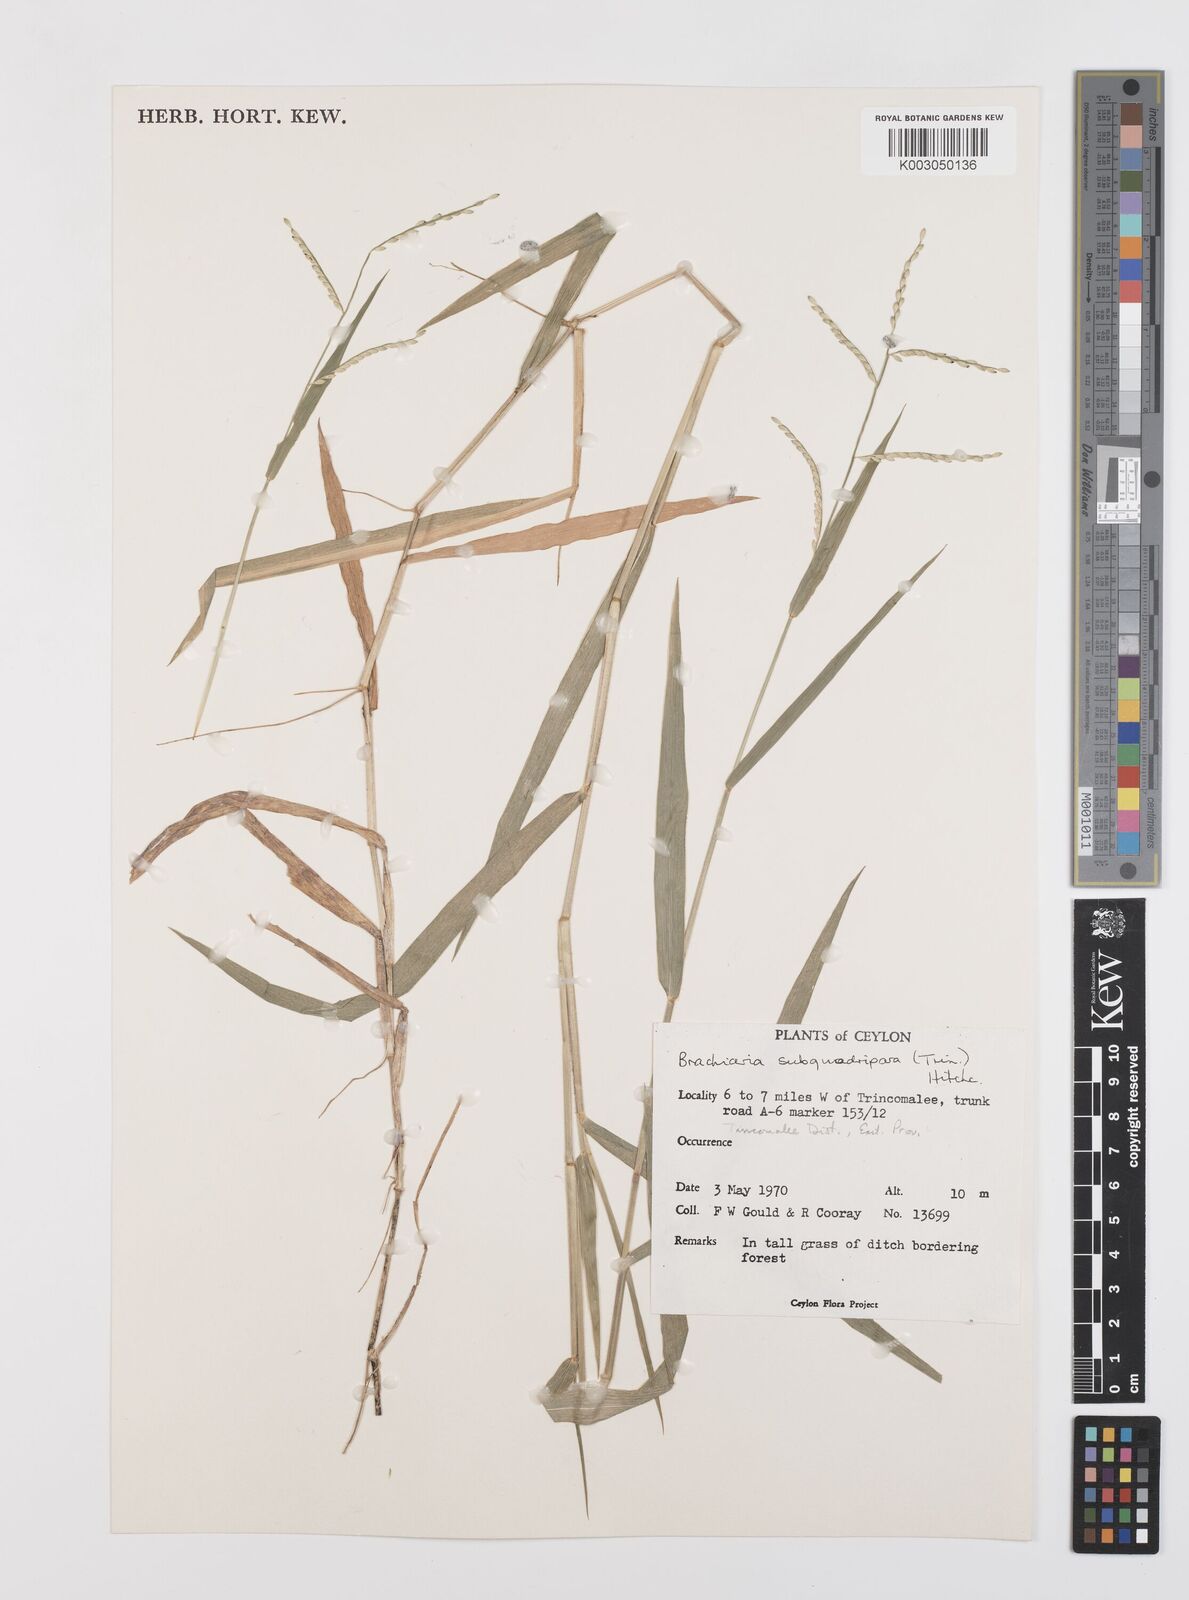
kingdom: Plantae
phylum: Tracheophyta
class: Liliopsida
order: Poales
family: Poaceae
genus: Urochloa
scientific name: Urochloa subquadripara
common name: Armgrass millet
